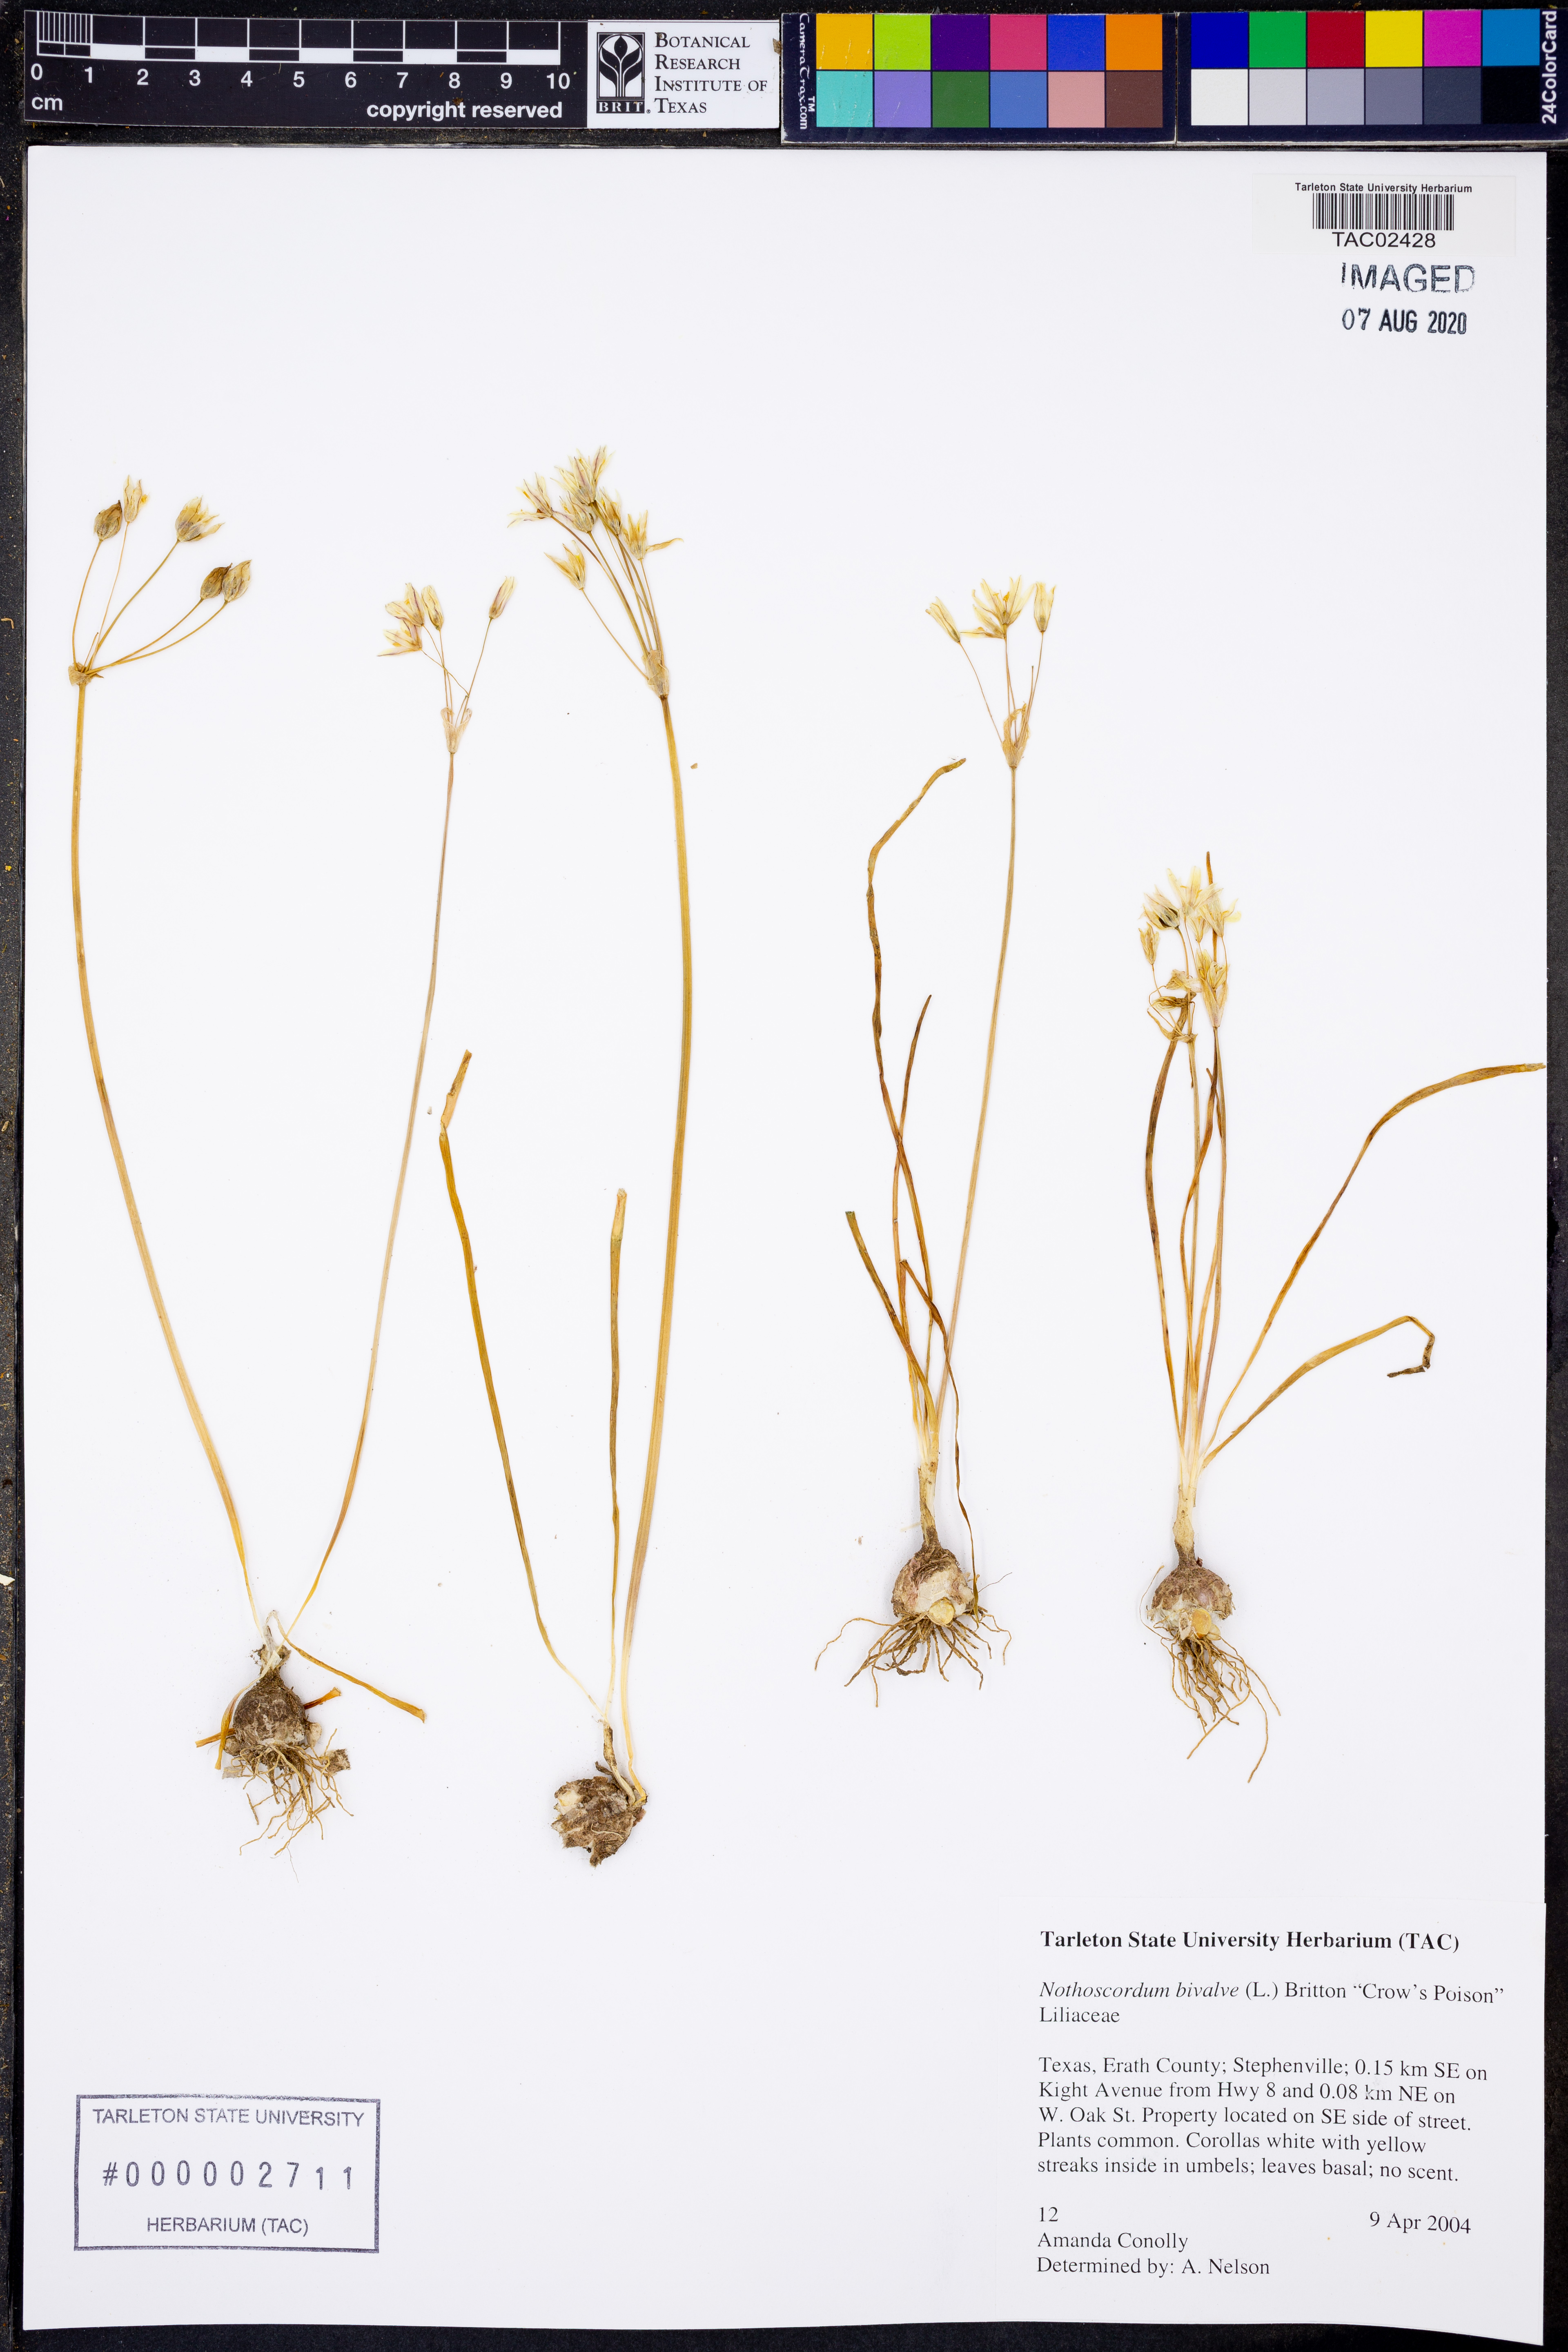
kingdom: Plantae
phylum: Tracheophyta
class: Liliopsida
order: Asparagales
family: Amaryllidaceae
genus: Nothoscordum
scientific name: Nothoscordum bivalve
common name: Crow-poison
